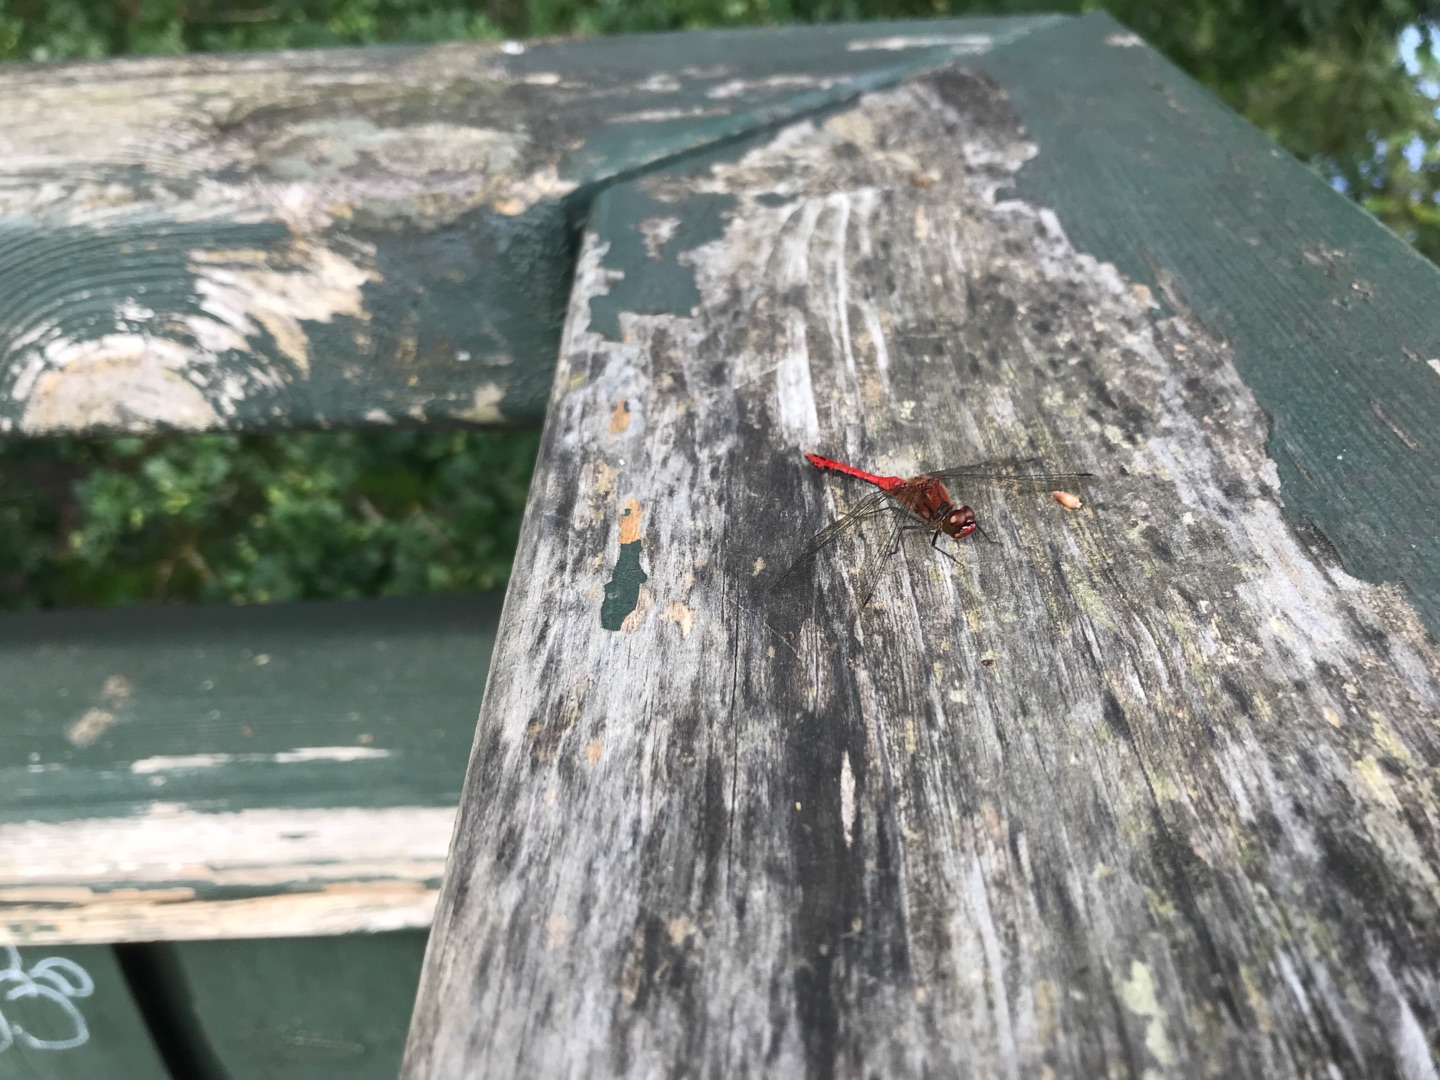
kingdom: Animalia
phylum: Arthropoda
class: Insecta
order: Odonata
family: Libellulidae
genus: Sympetrum
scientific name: Sympetrum sanguineum
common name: Blodrød hedelibel
